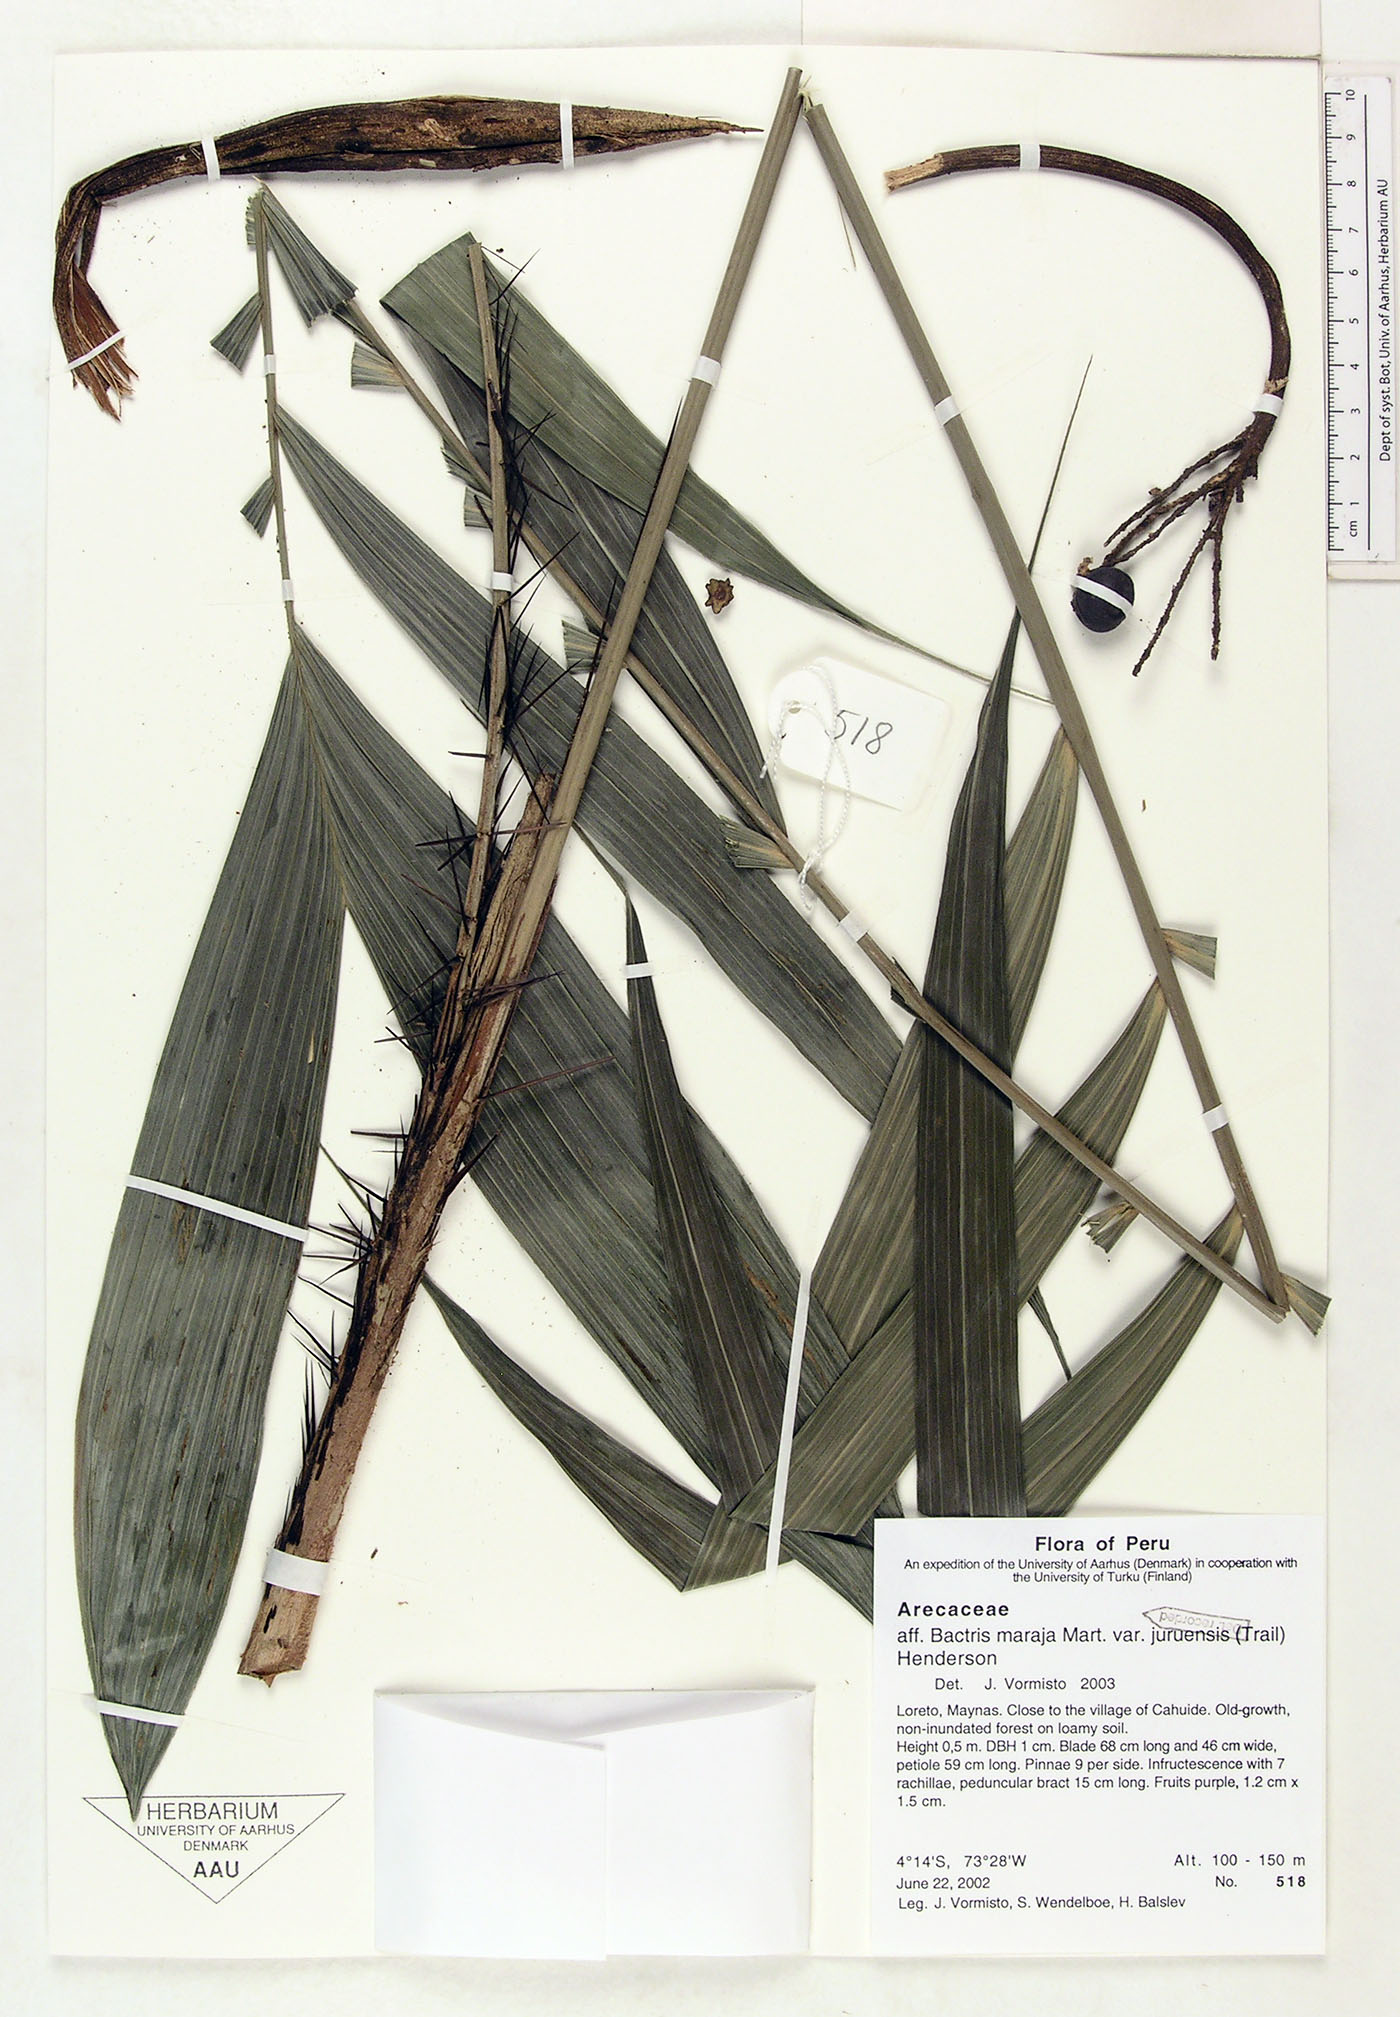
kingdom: Plantae
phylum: Tracheophyta
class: Liliopsida
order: Arecales
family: Arecaceae
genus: Bactris
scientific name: Bactris maraja
